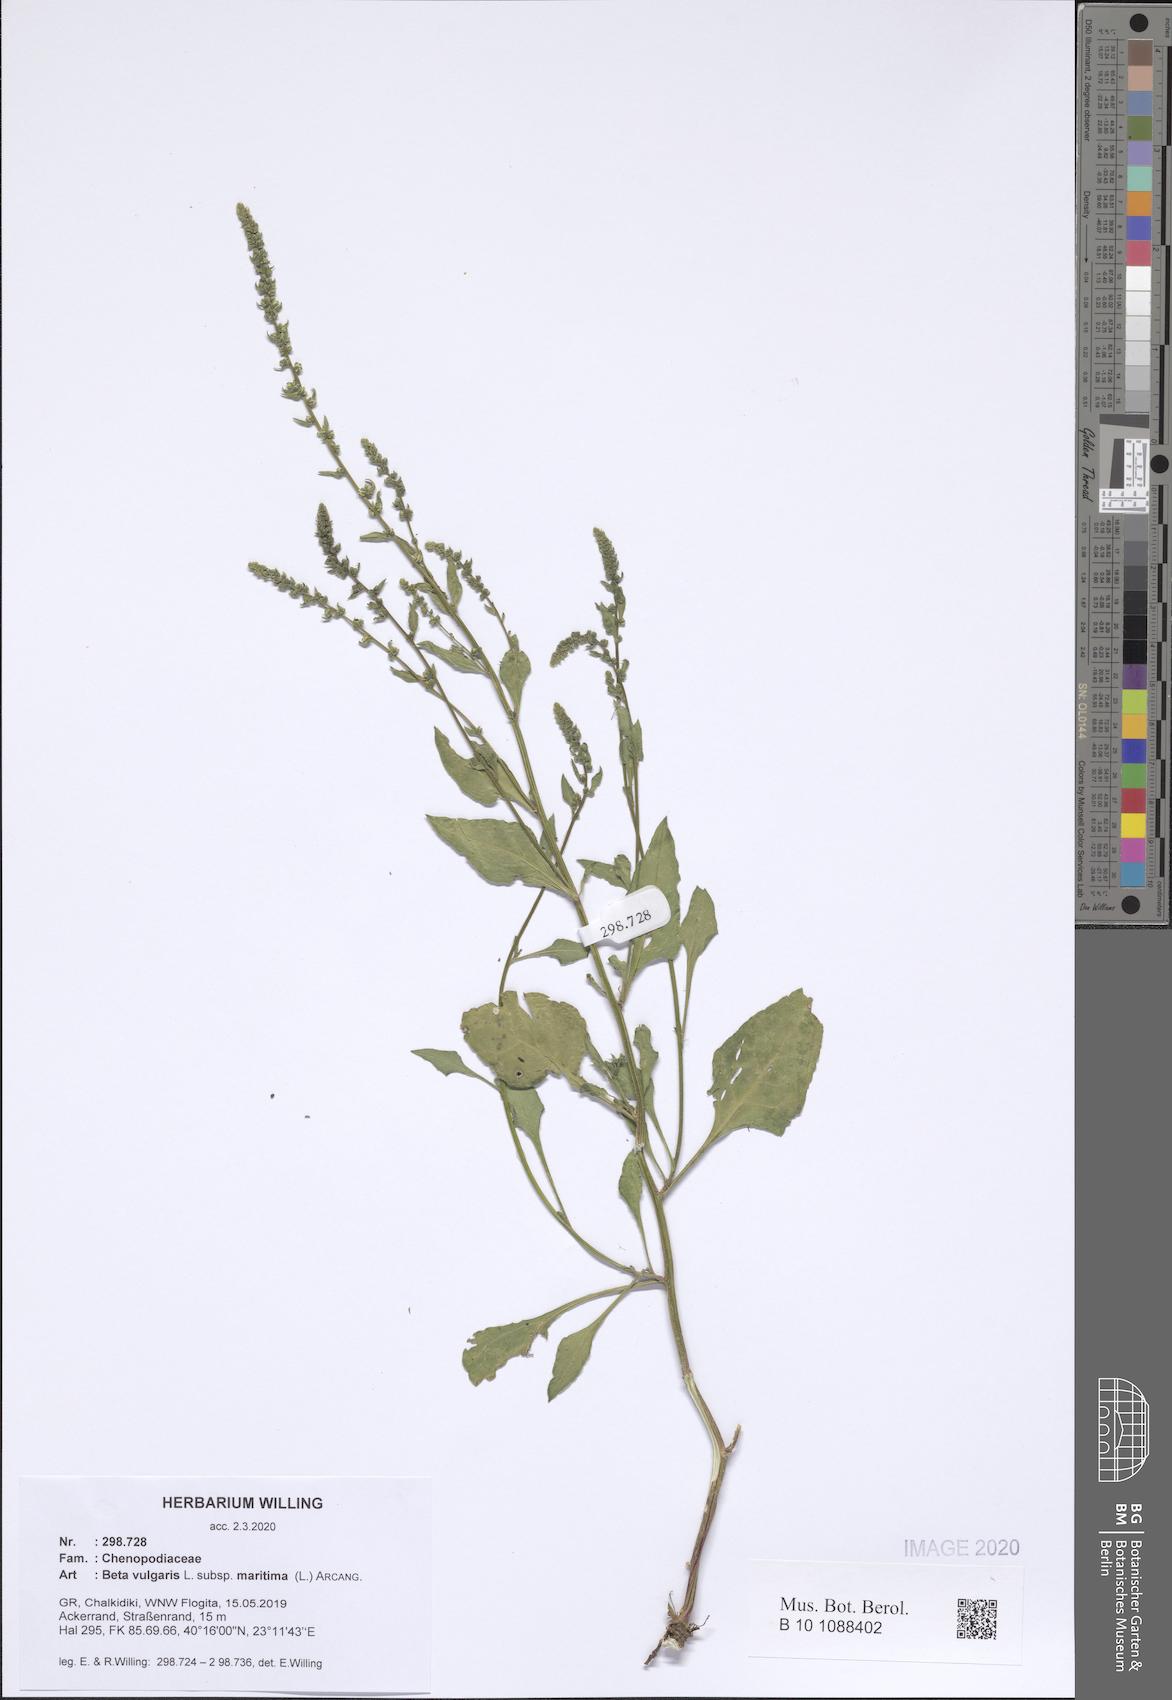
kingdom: Plantae
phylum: Tracheophyta
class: Magnoliopsida
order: Caryophyllales
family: Amaranthaceae
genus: Beta
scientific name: Beta maritima
